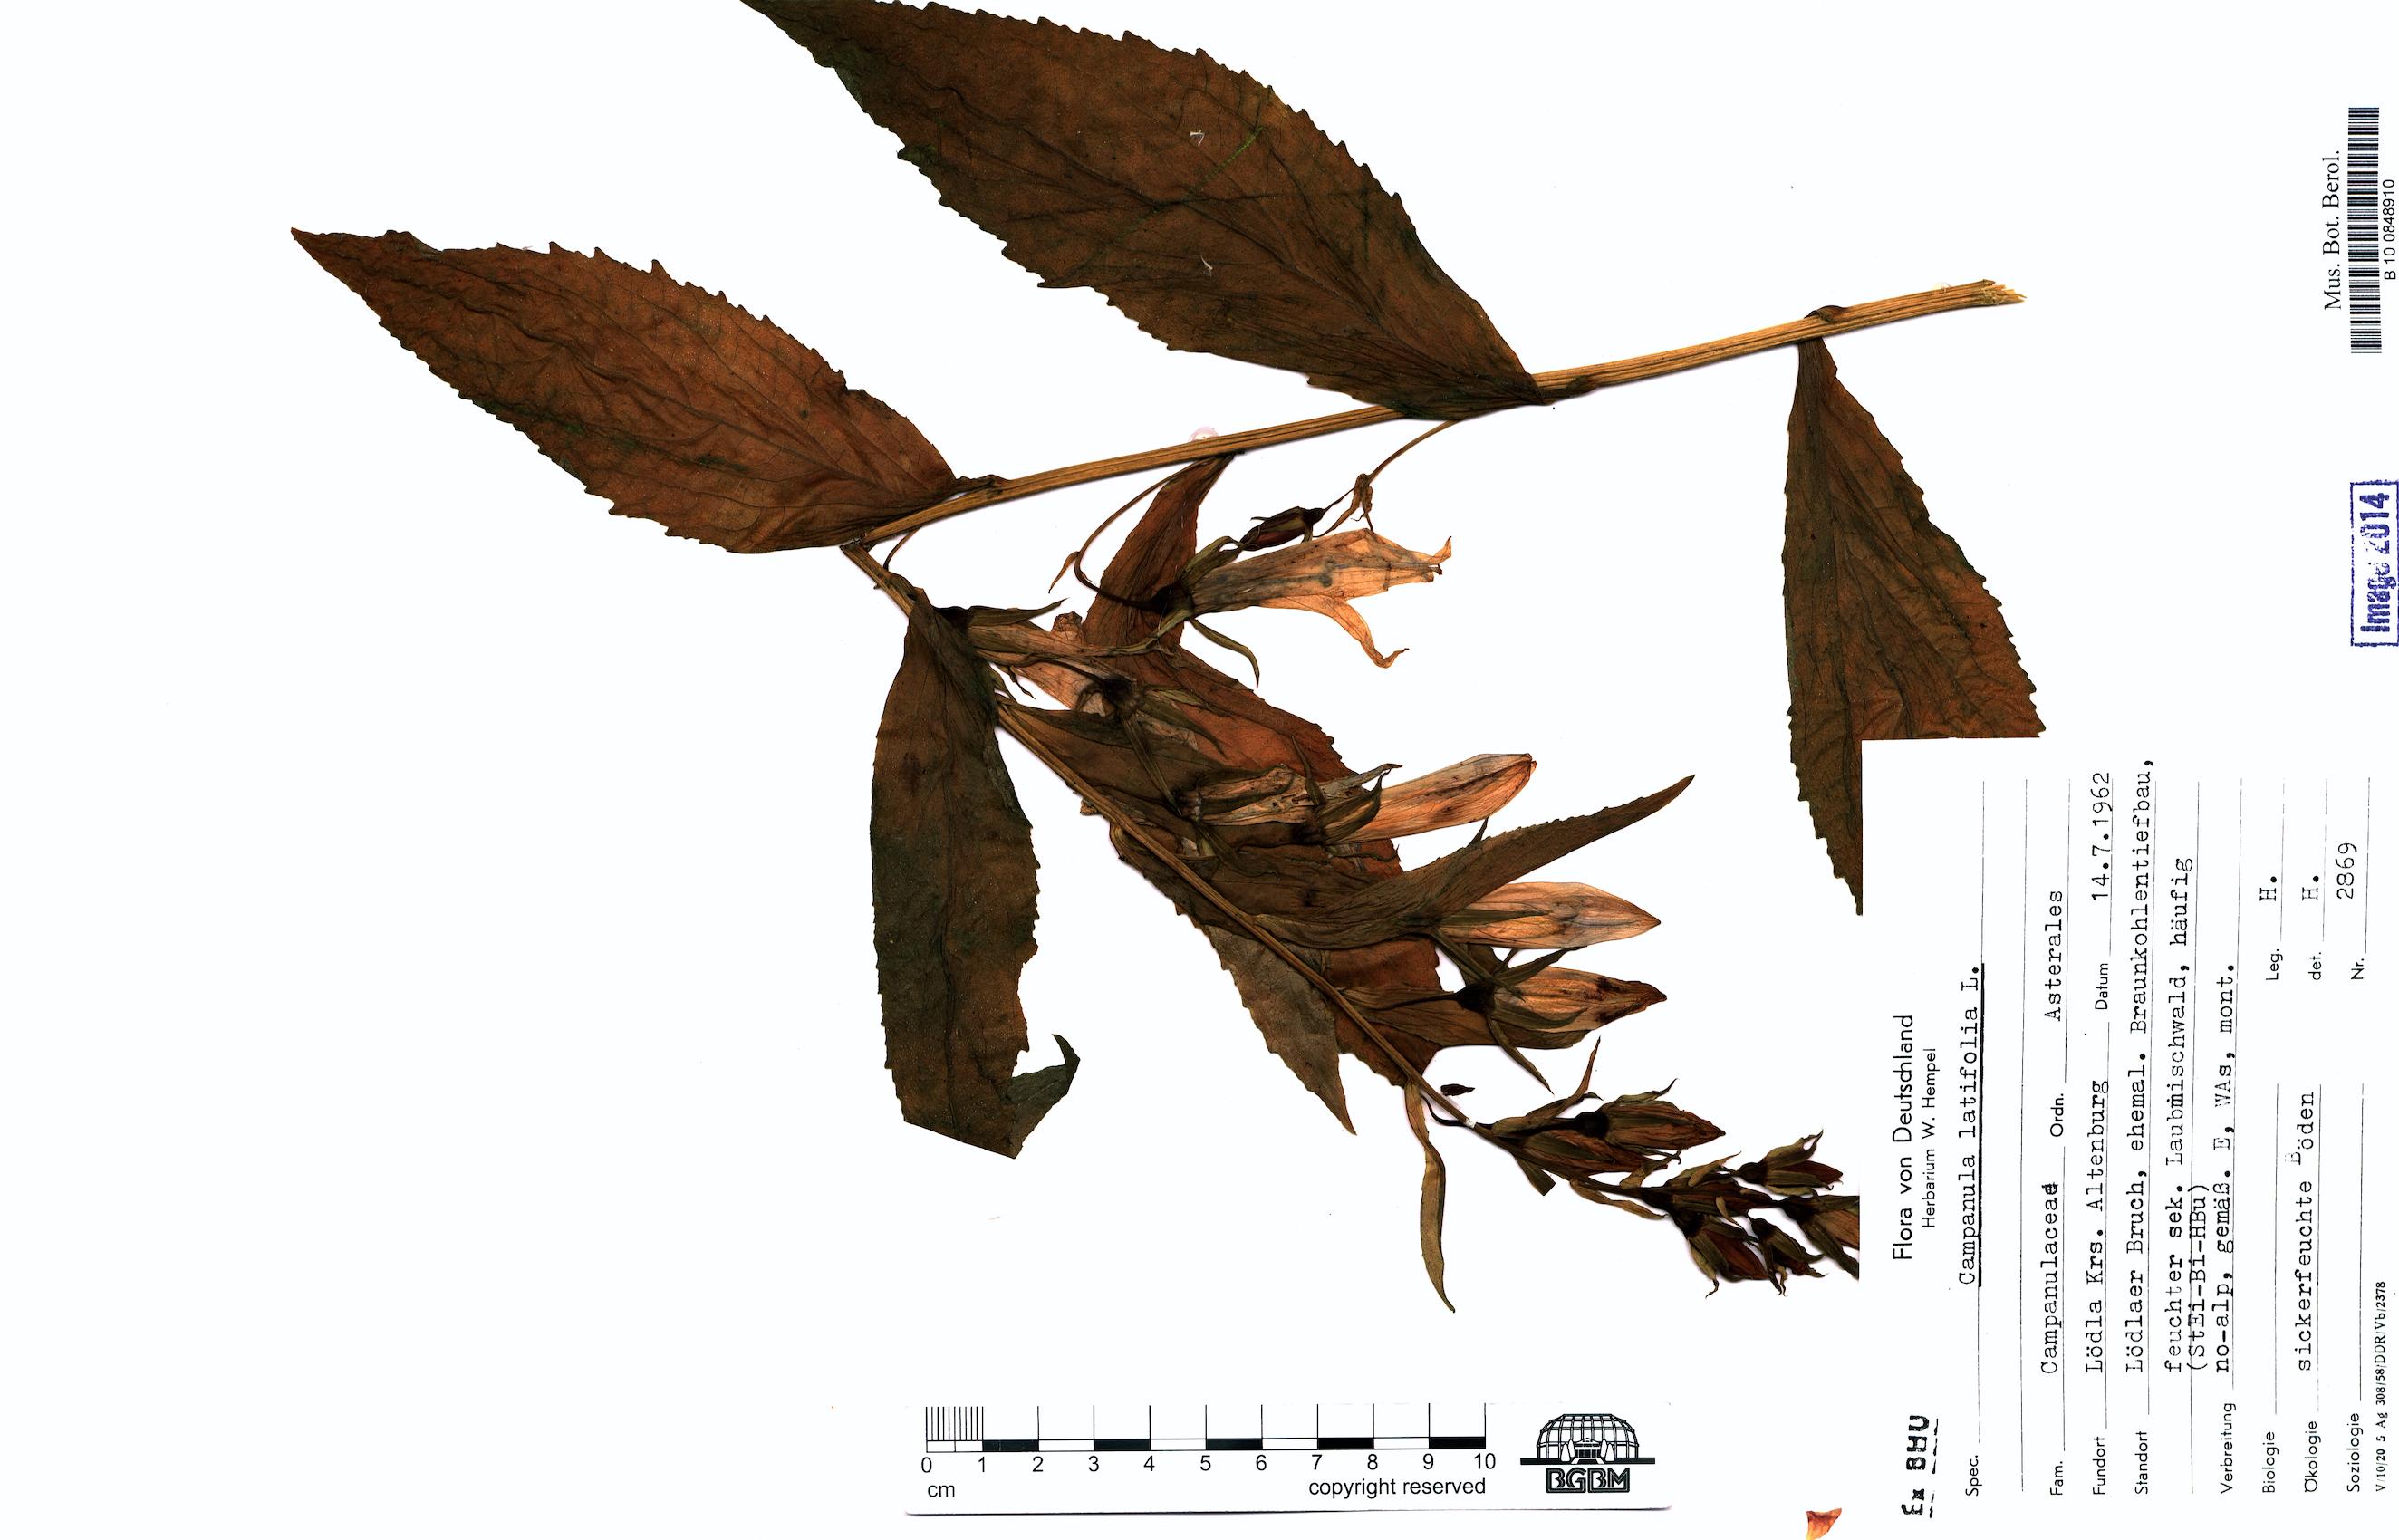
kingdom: Plantae
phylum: Tracheophyta
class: Magnoliopsida
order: Asterales
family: Campanulaceae
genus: Campanula
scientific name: Campanula latifolia
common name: Giant bellflower
